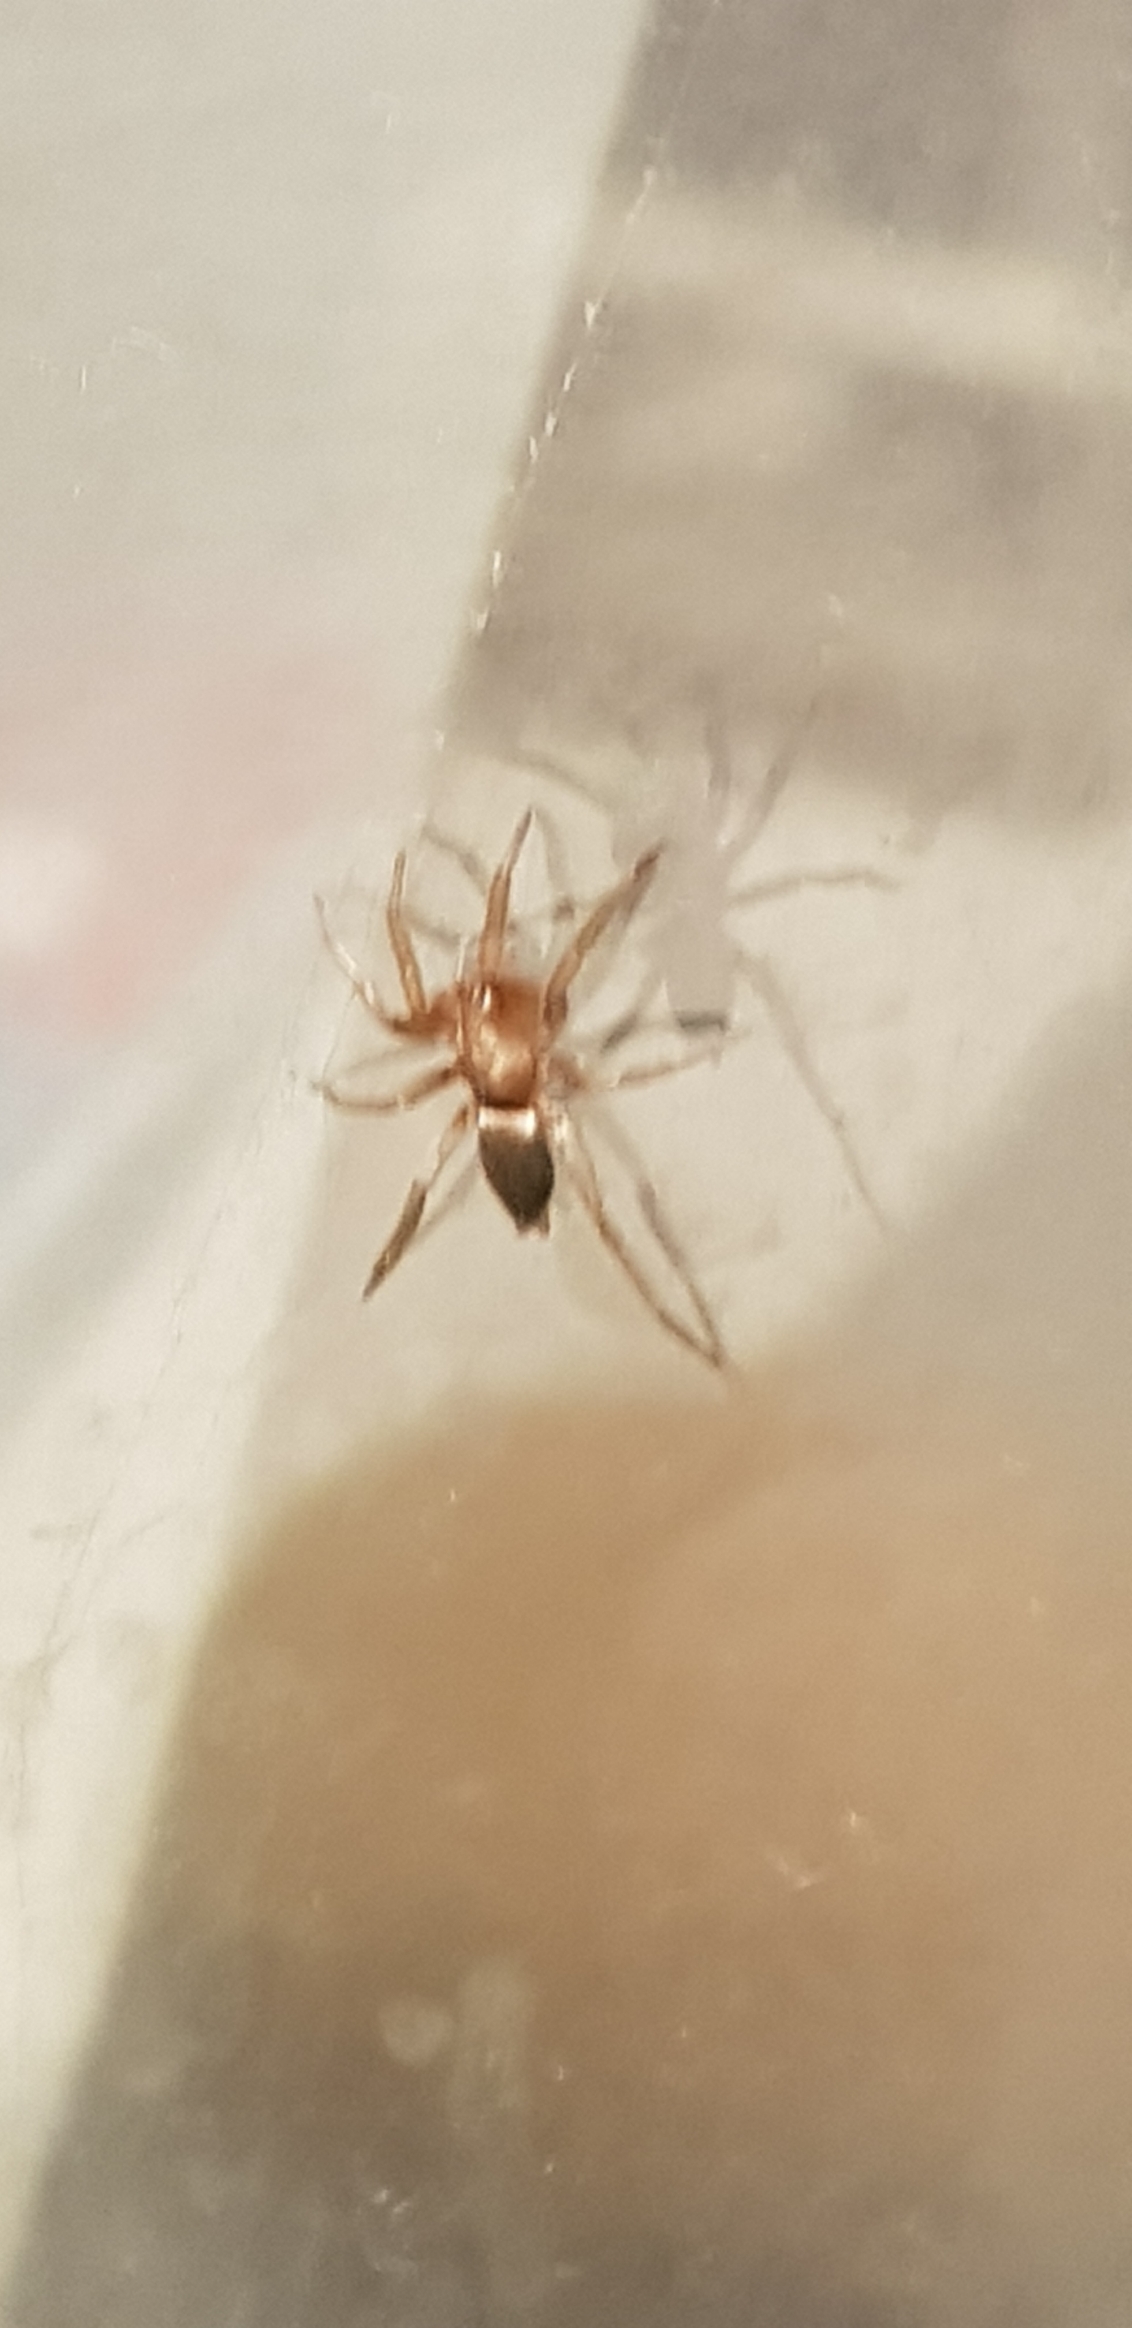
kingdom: Animalia
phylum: Arthropoda
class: Arachnida
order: Araneae
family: Gnaphosidae
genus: Scotophaeus
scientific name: Scotophaeus
